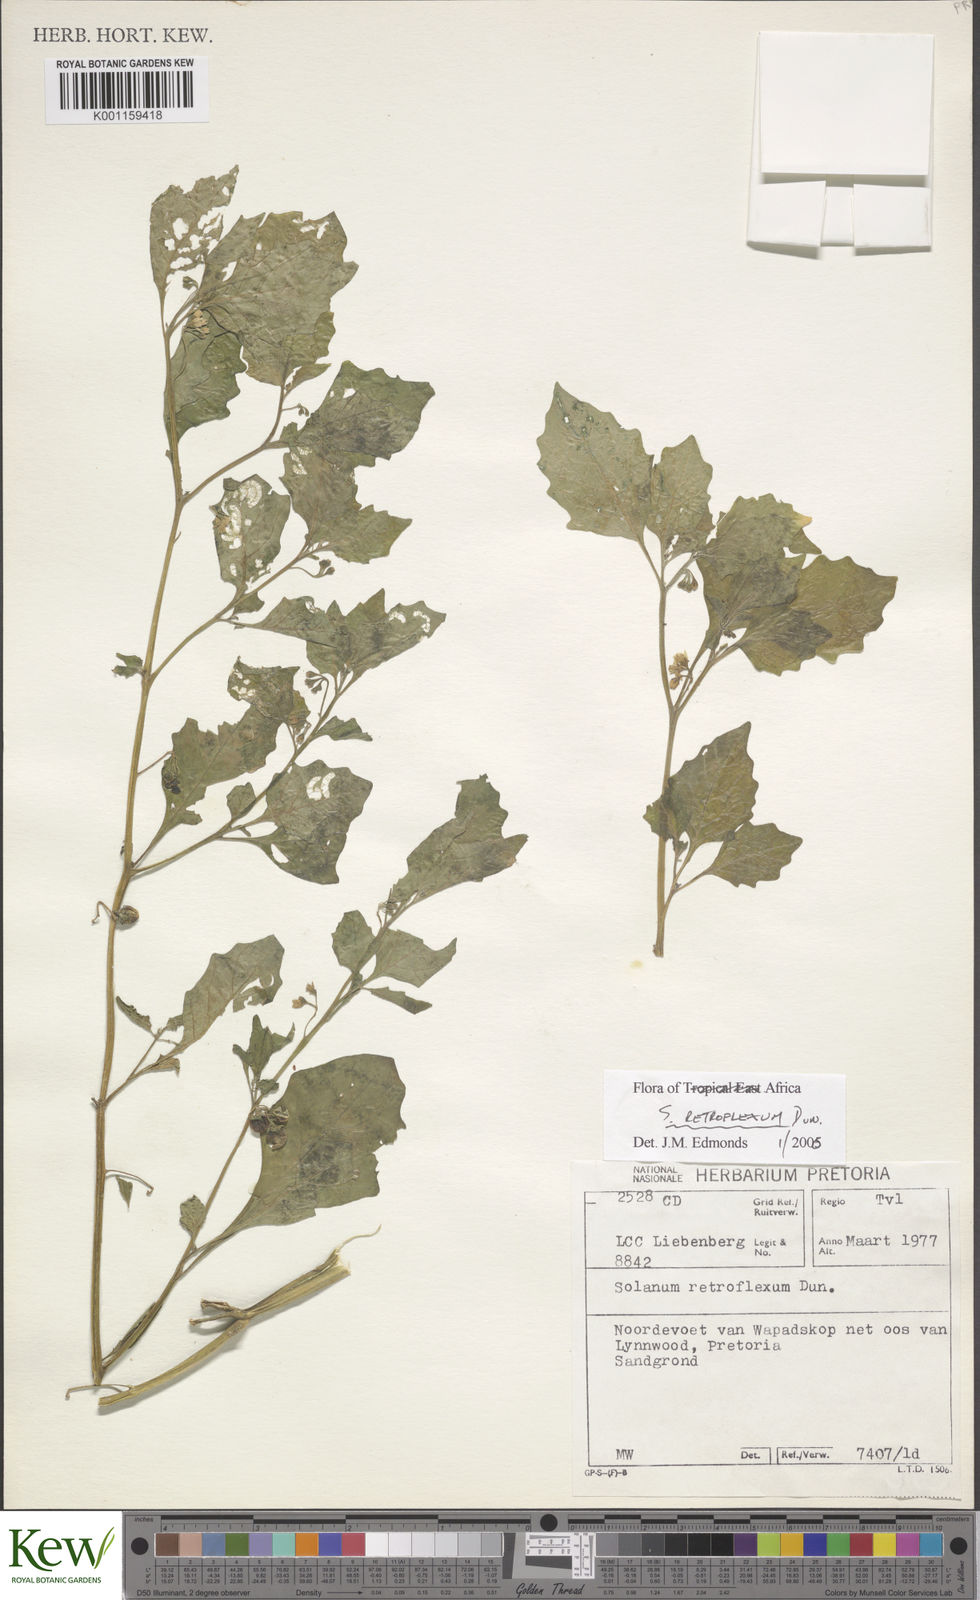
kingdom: Plantae
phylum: Tracheophyta
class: Magnoliopsida
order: Solanales
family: Solanaceae
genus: Solanum
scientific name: Solanum retroflexum
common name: Wonderberry
